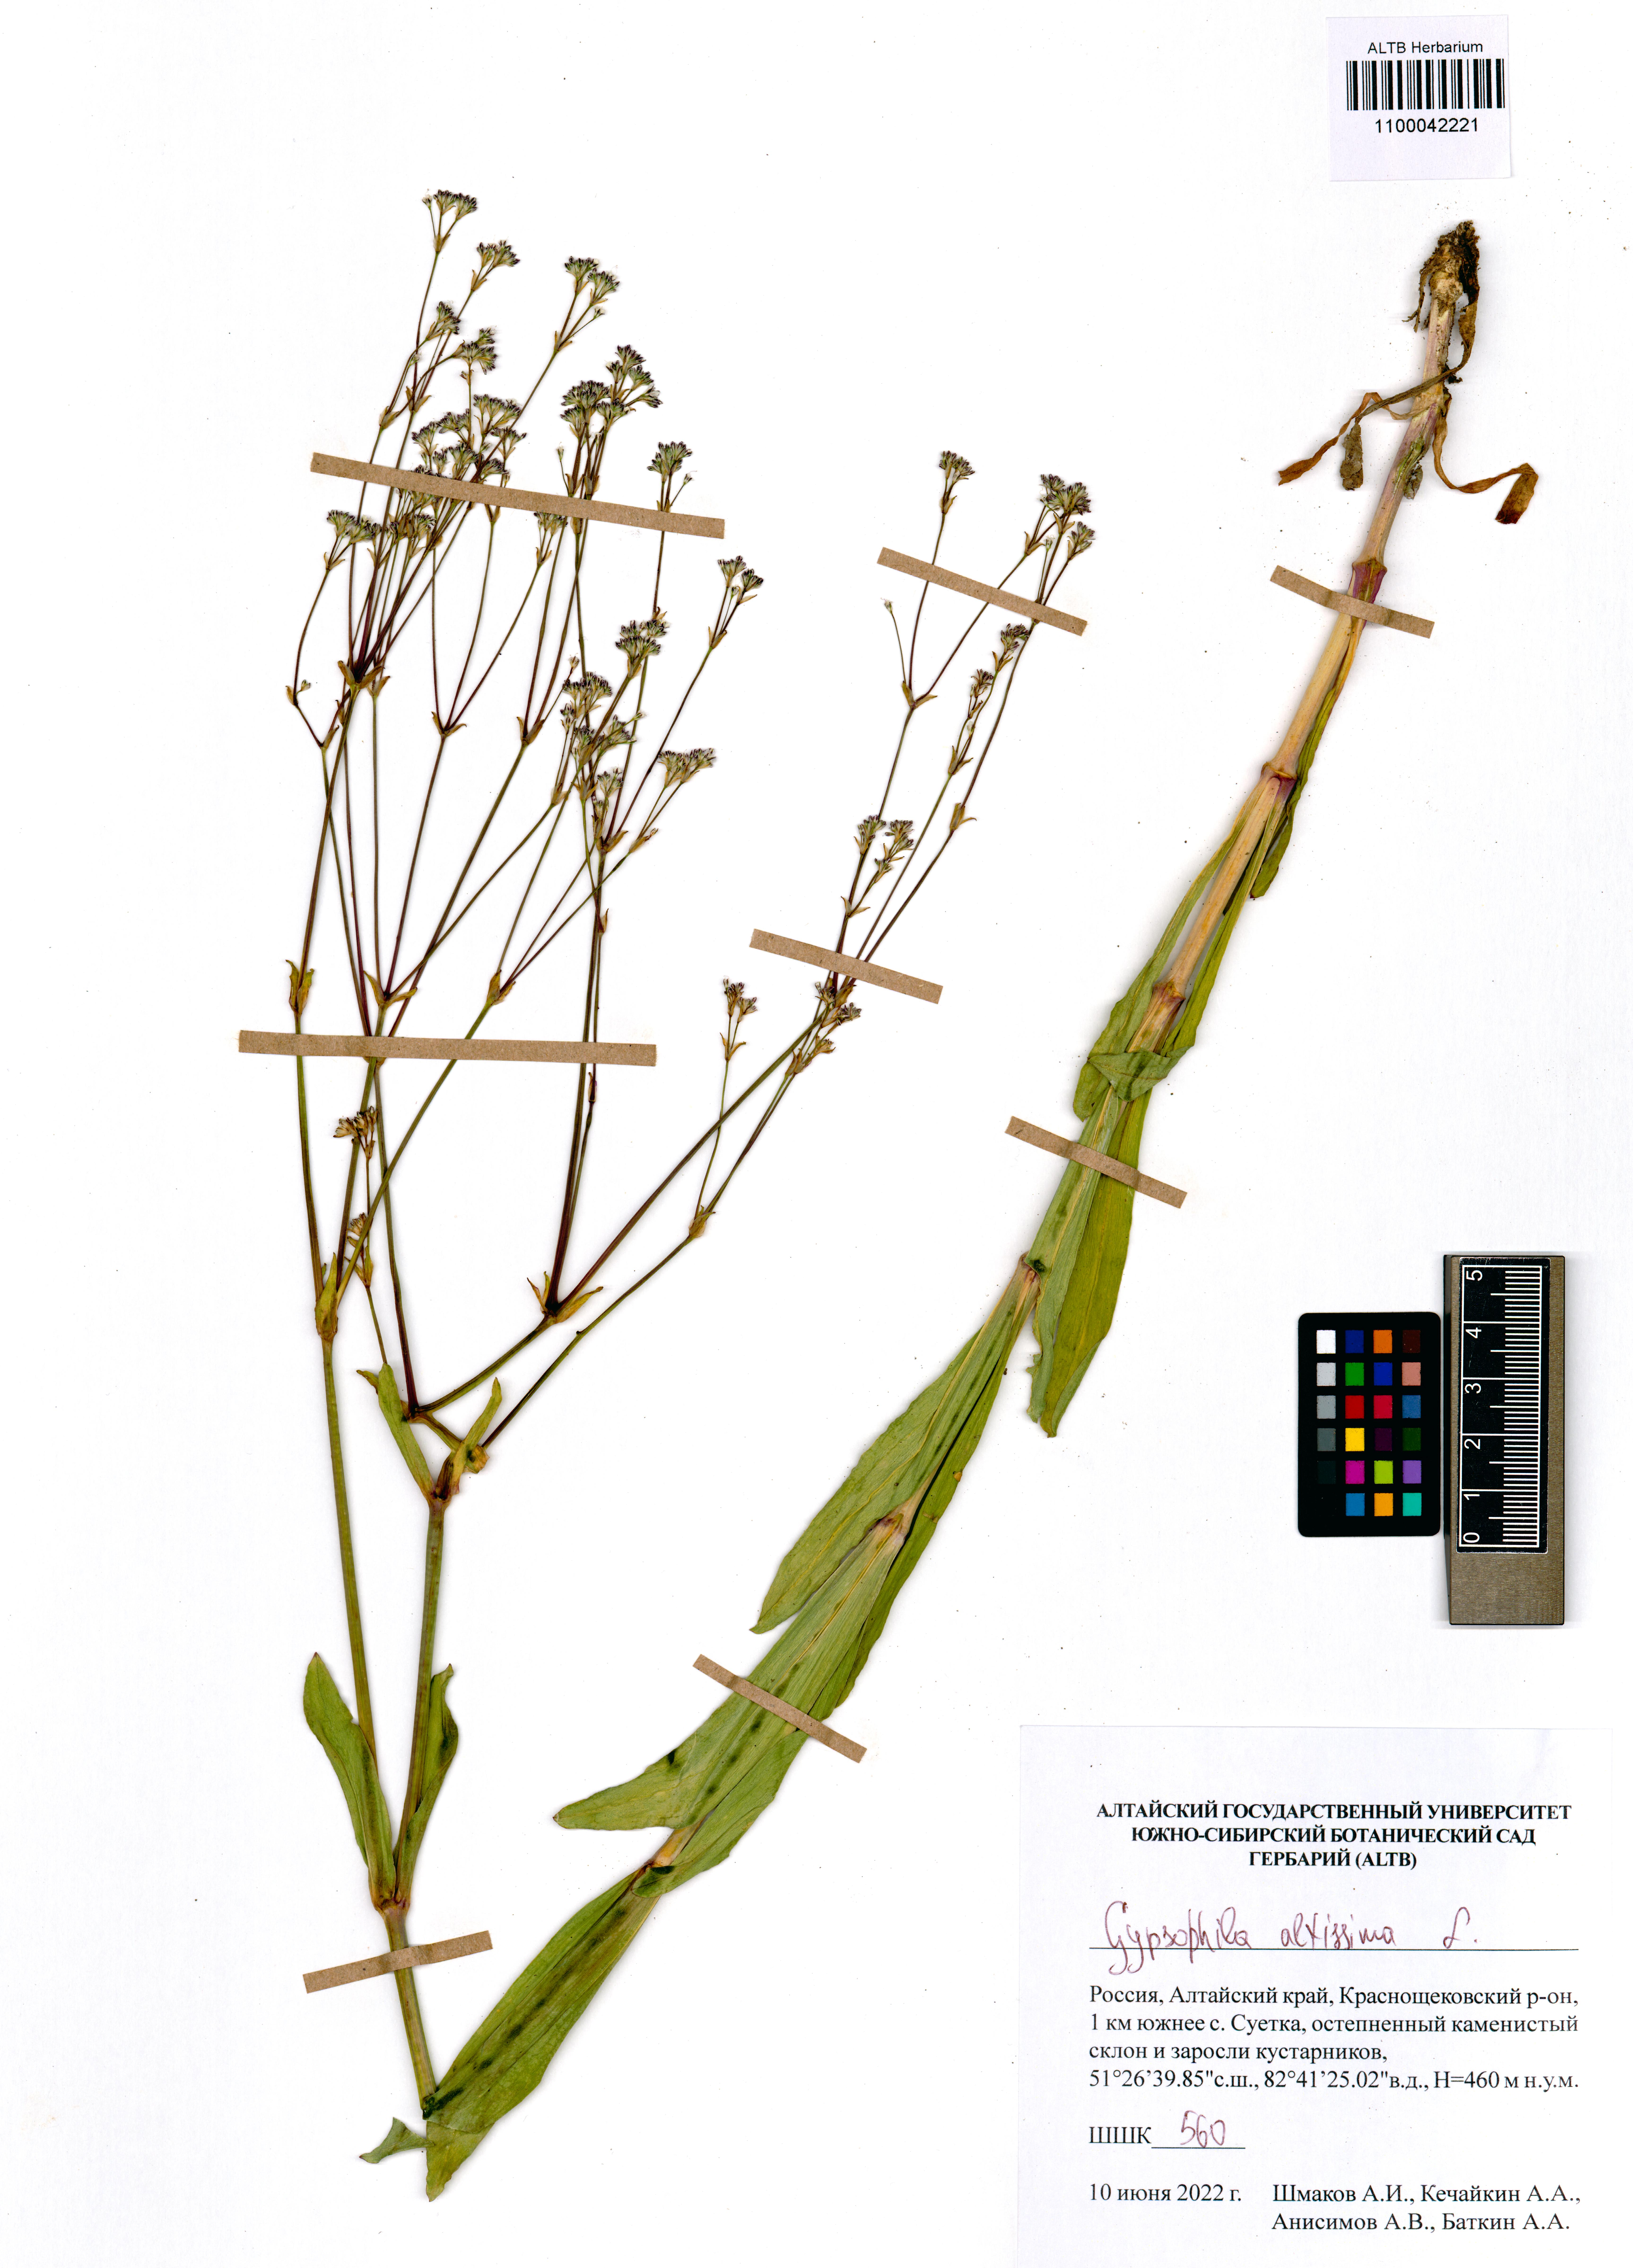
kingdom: Plantae
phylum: Tracheophyta
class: Magnoliopsida
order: Caryophyllales
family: Caryophyllaceae
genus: Gypsophila
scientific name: Gypsophila altissima
